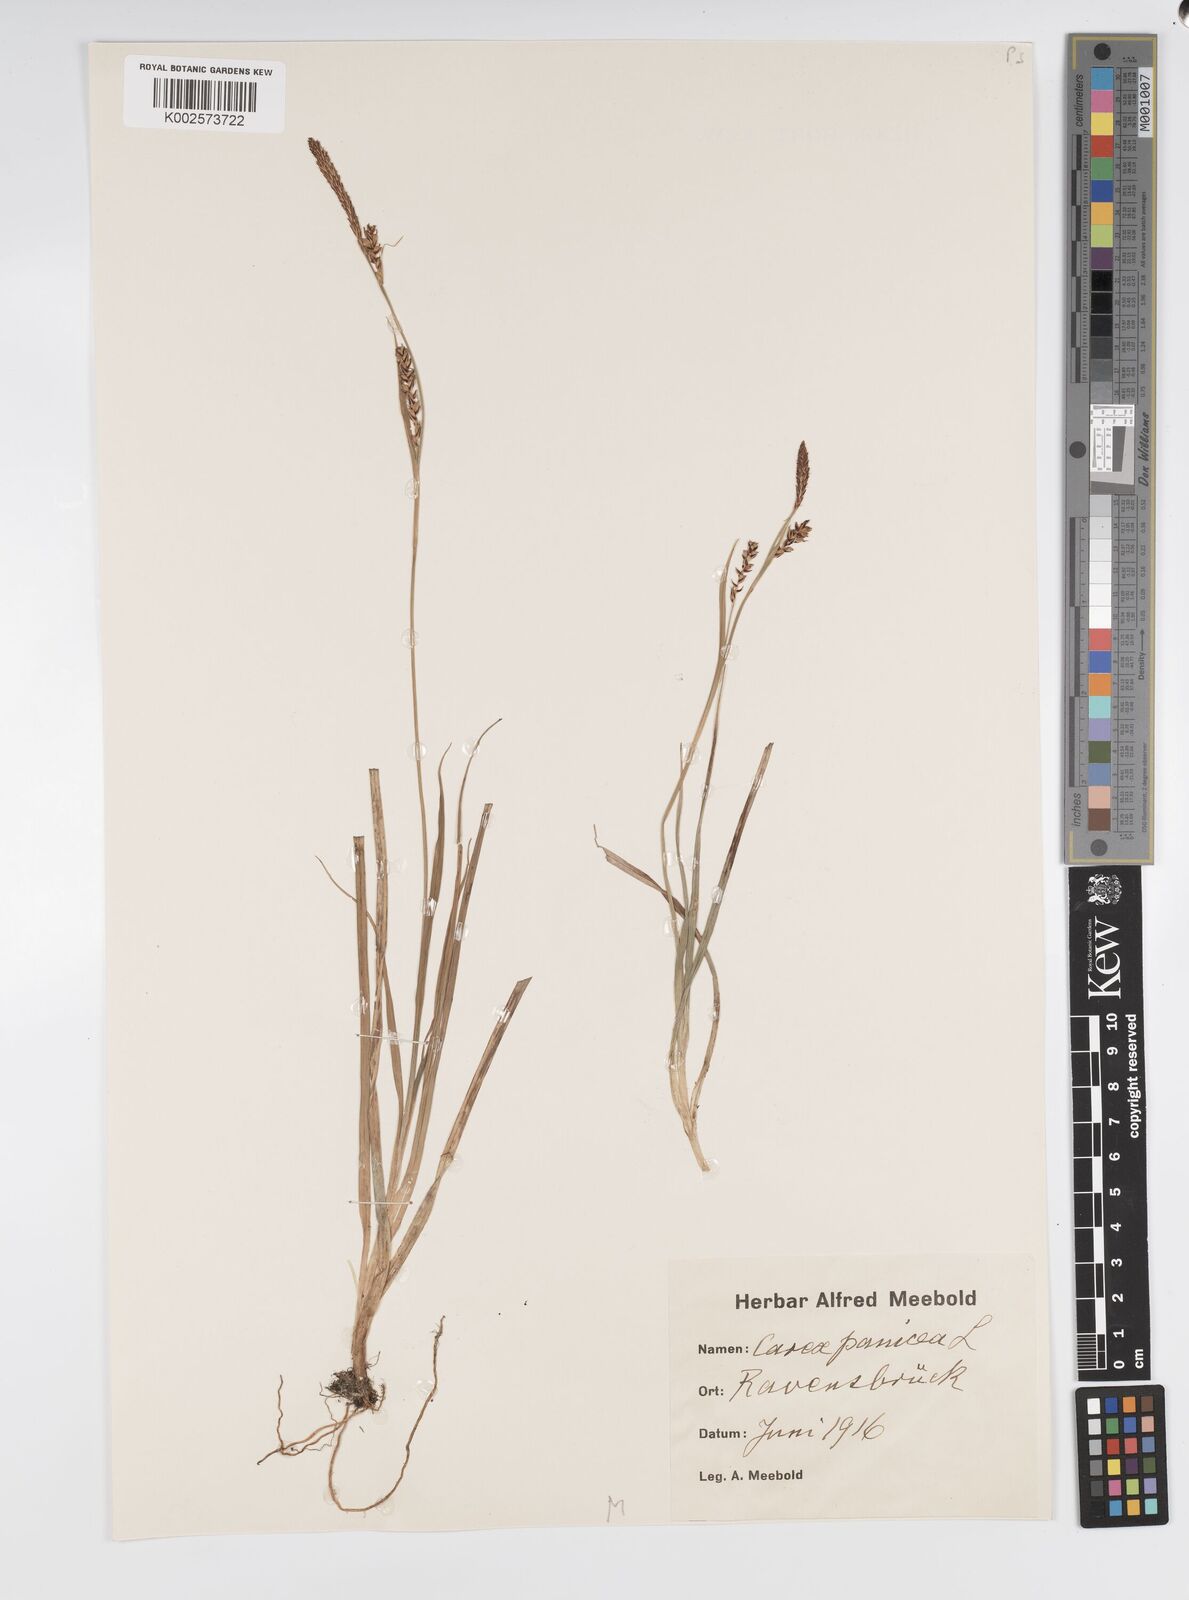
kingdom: Plantae
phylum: Tracheophyta
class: Liliopsida
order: Poales
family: Cyperaceae
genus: Carex
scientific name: Carex panicea
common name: Carnation sedge
